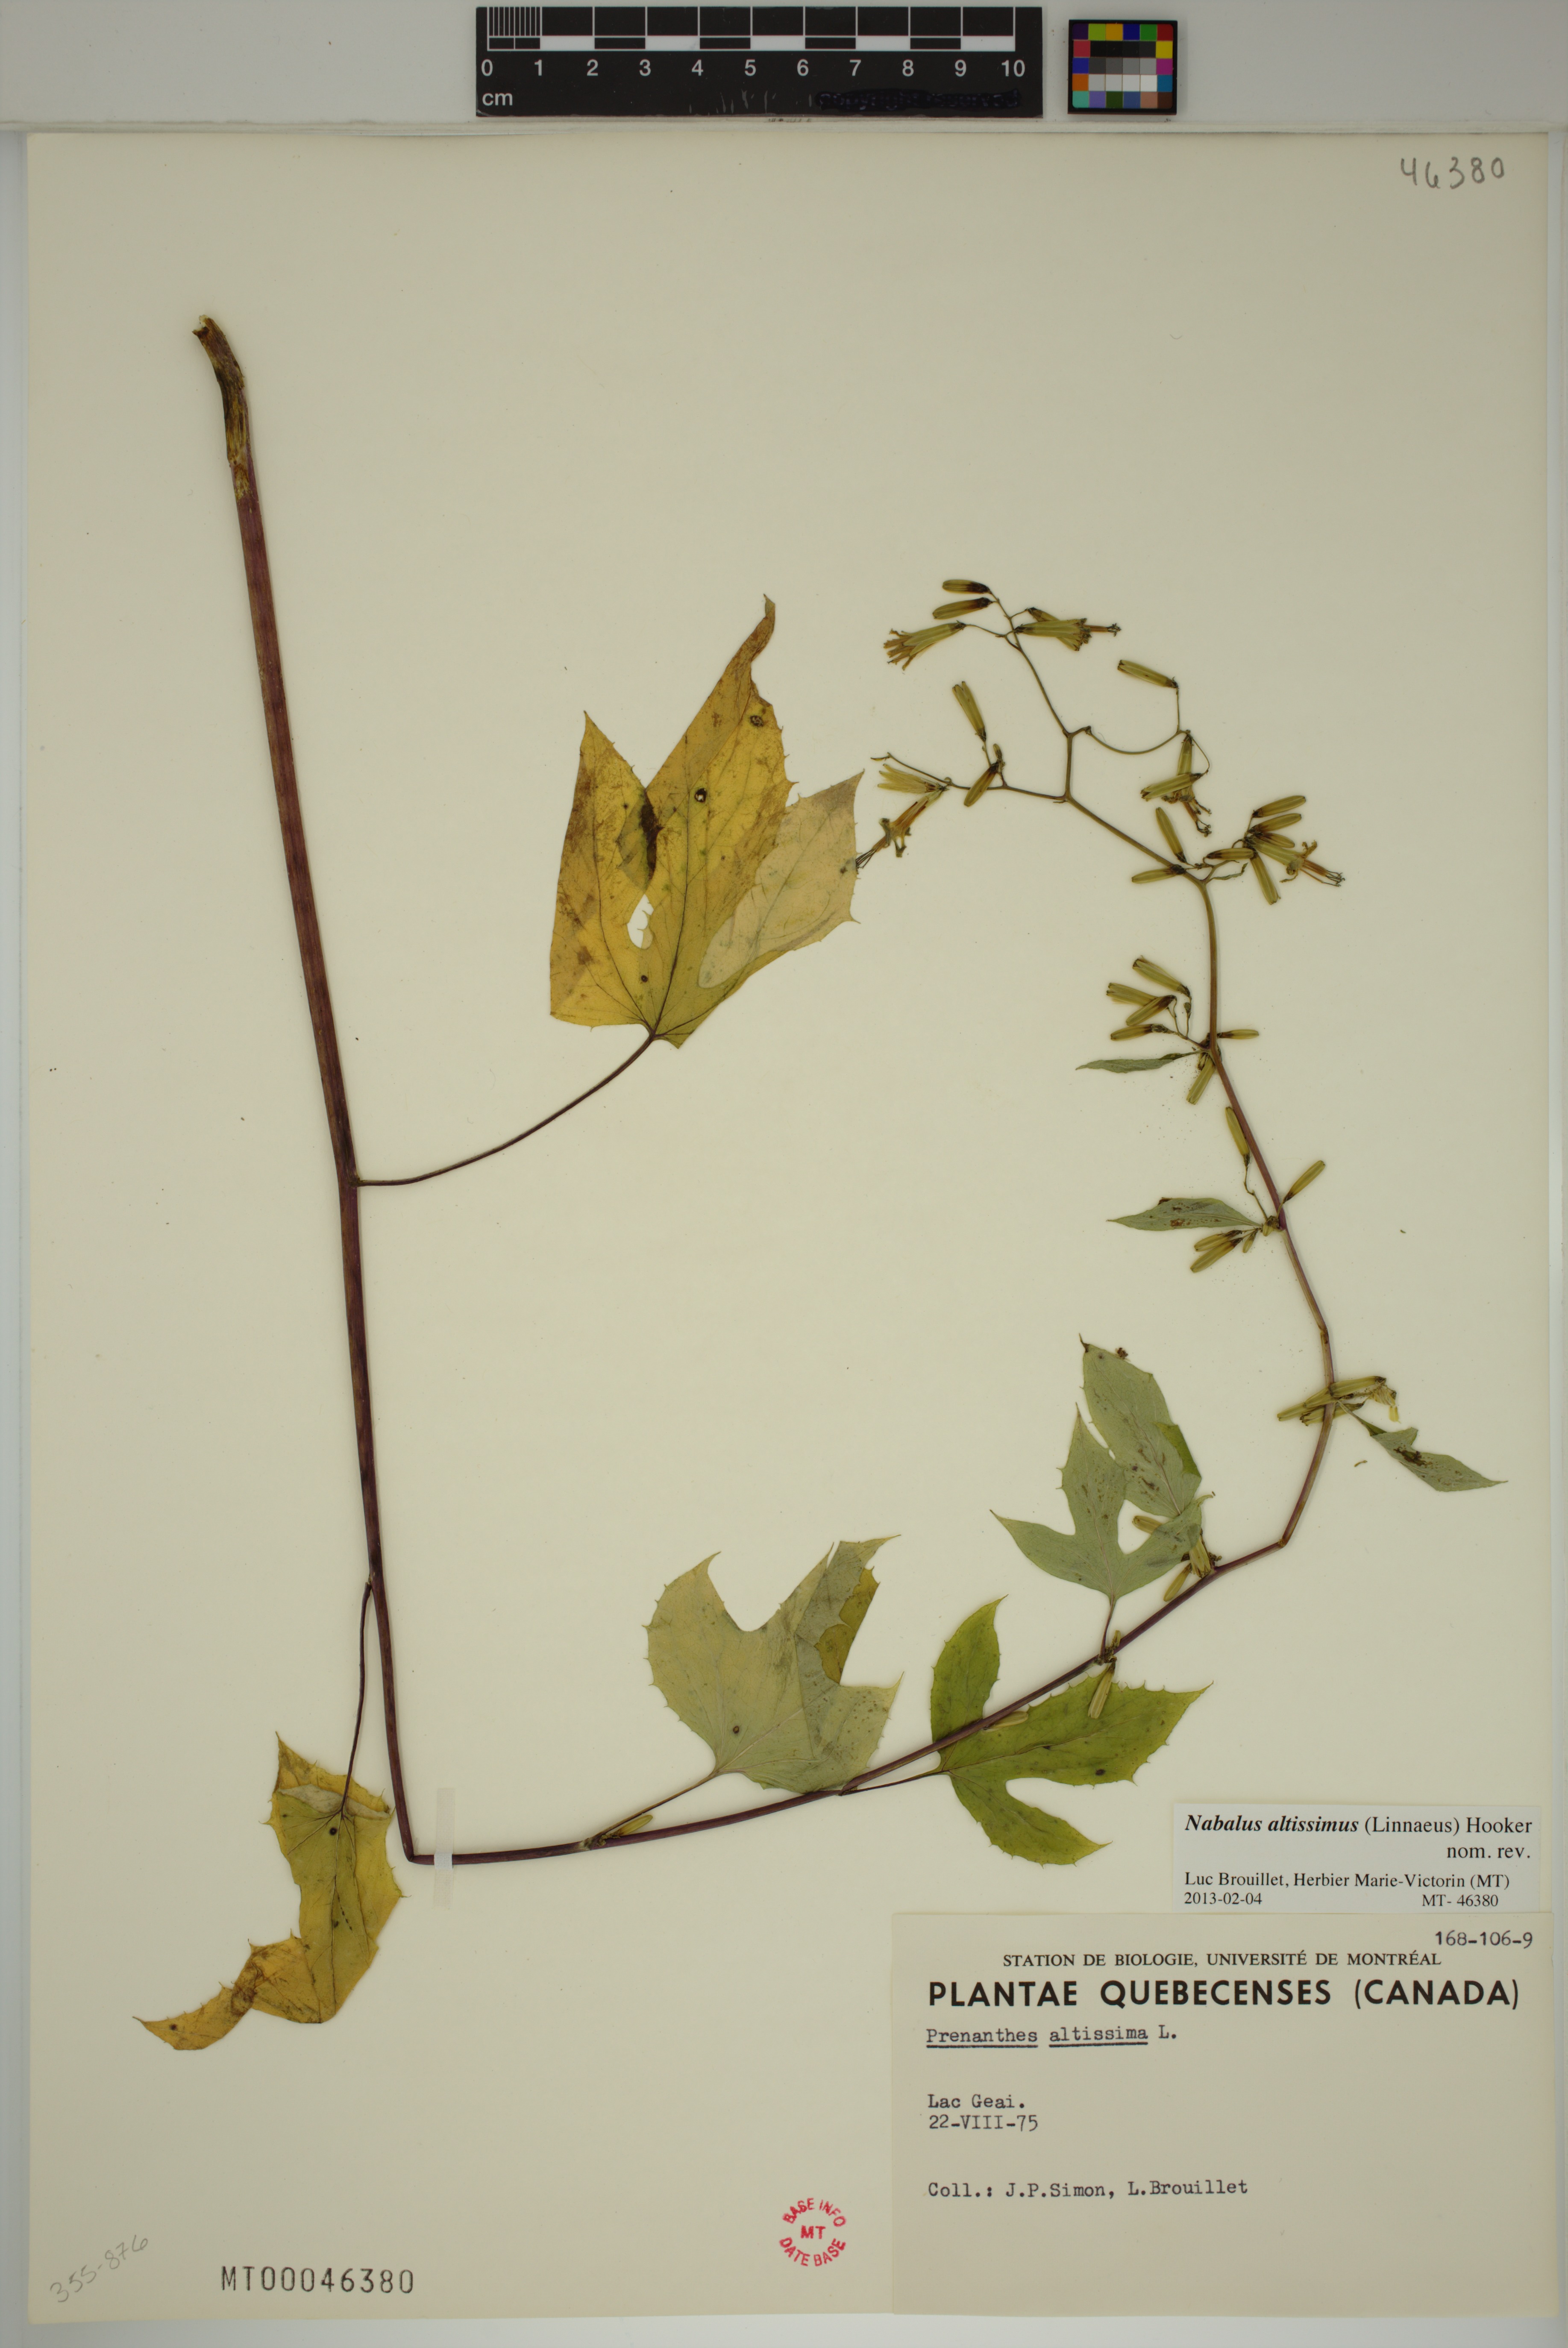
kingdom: Plantae
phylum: Tracheophyta
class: Magnoliopsida
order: Asterales
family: Asteraceae
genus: Nabalus
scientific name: Nabalus altissima
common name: Tall rattlesnakeroot
